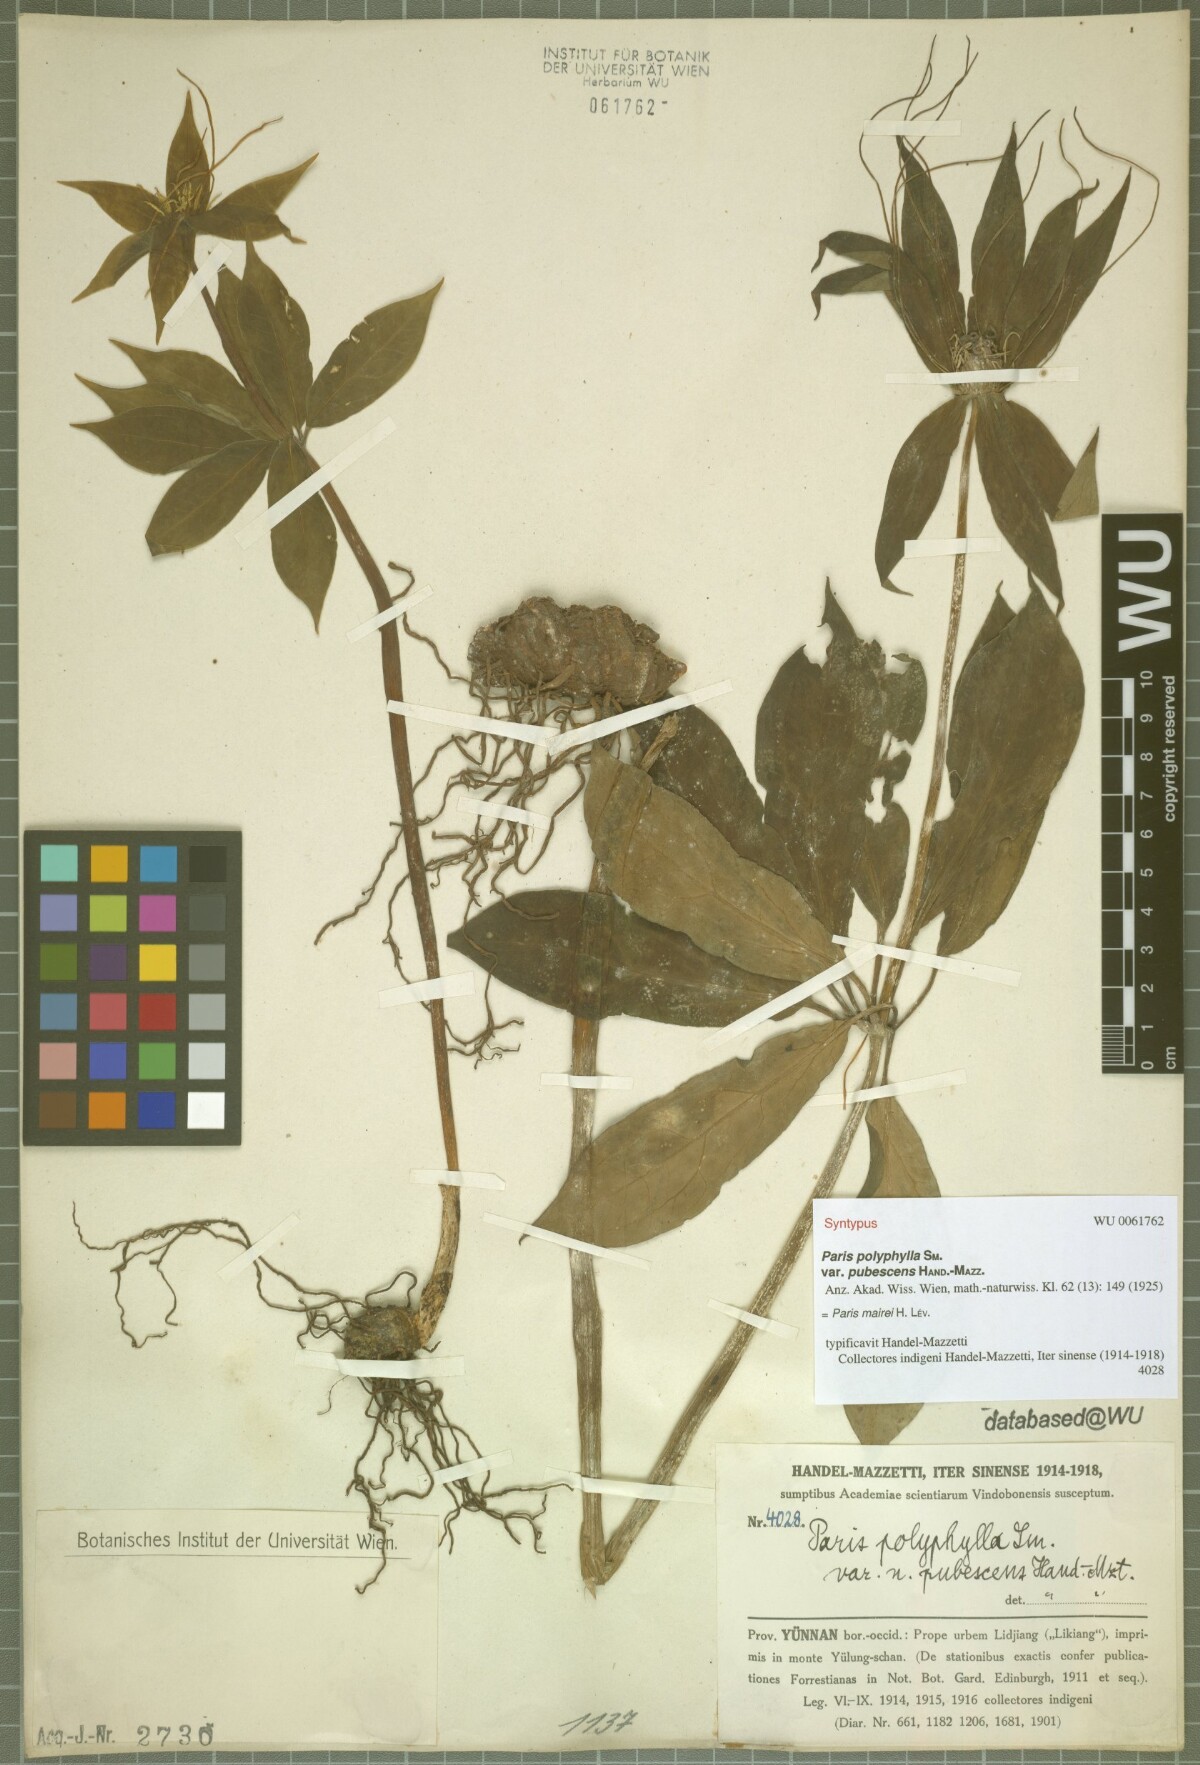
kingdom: Plantae
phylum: Tracheophyta
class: Liliopsida
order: Liliales
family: Melanthiaceae
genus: Paris
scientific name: Paris mairei
